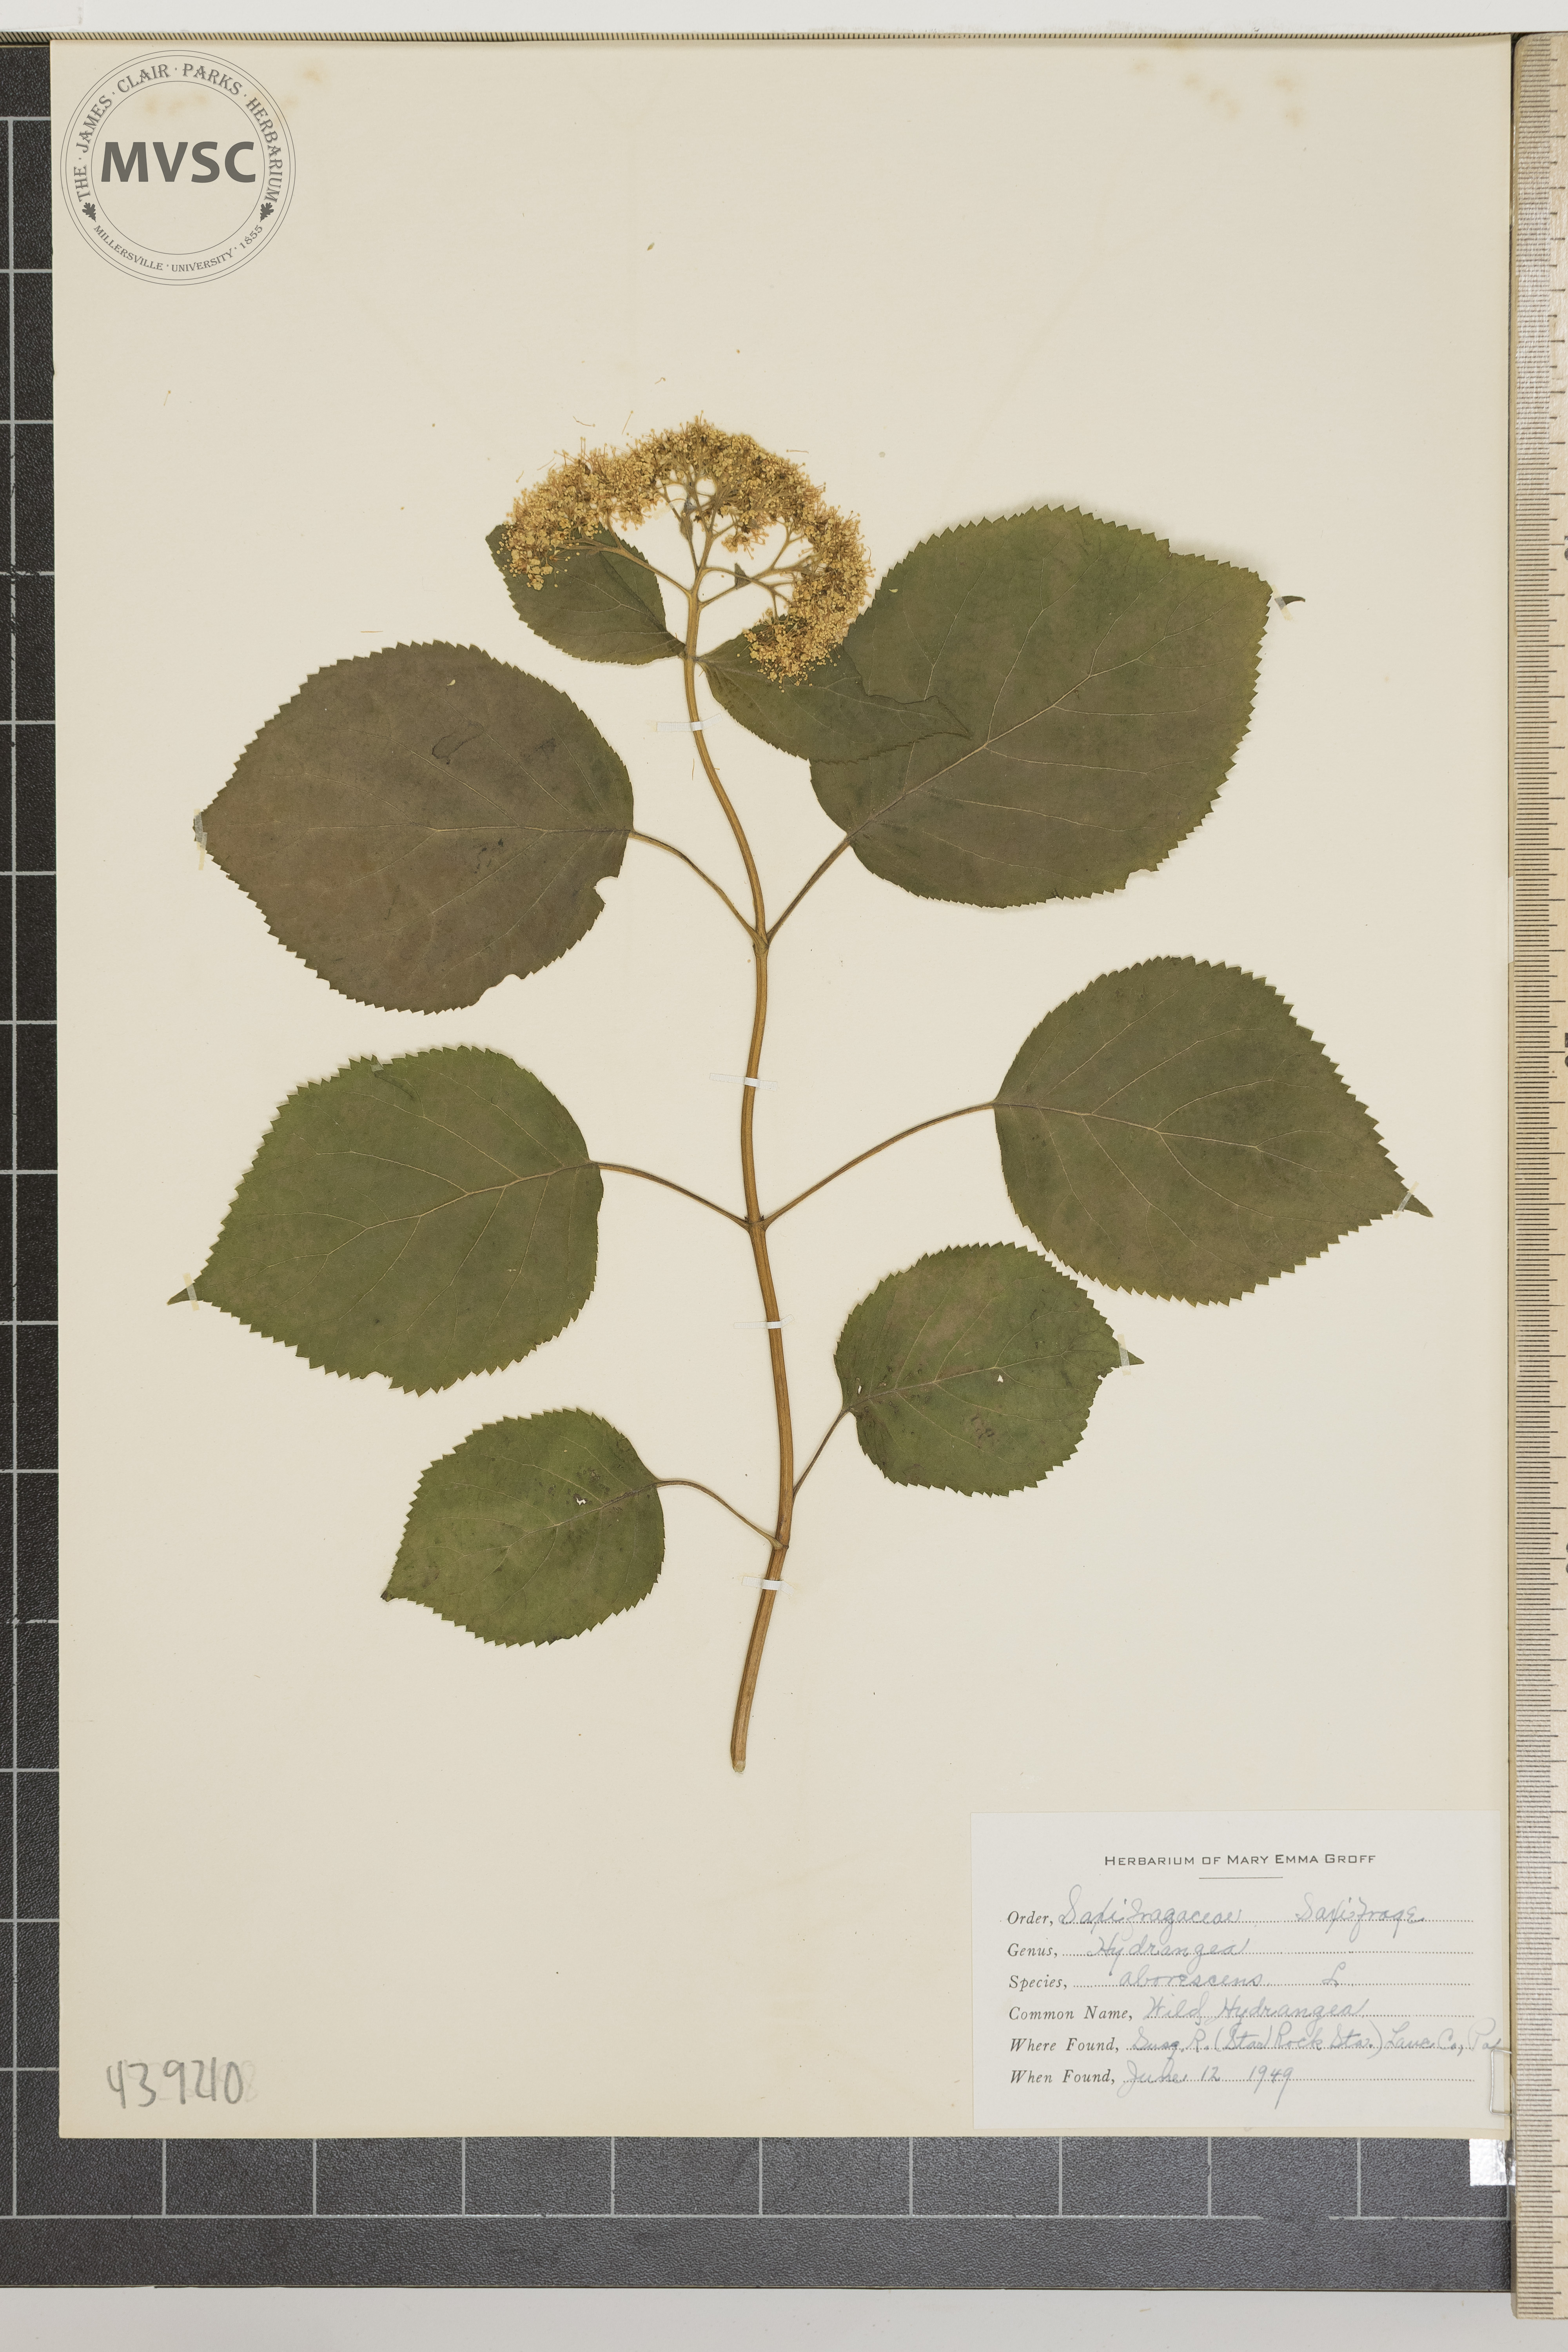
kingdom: Plantae
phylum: Tracheophyta
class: Magnoliopsida
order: Cornales
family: Hydrangeaceae
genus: Hydrangea
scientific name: Hydrangea arborescens
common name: Wild Hydrangea
